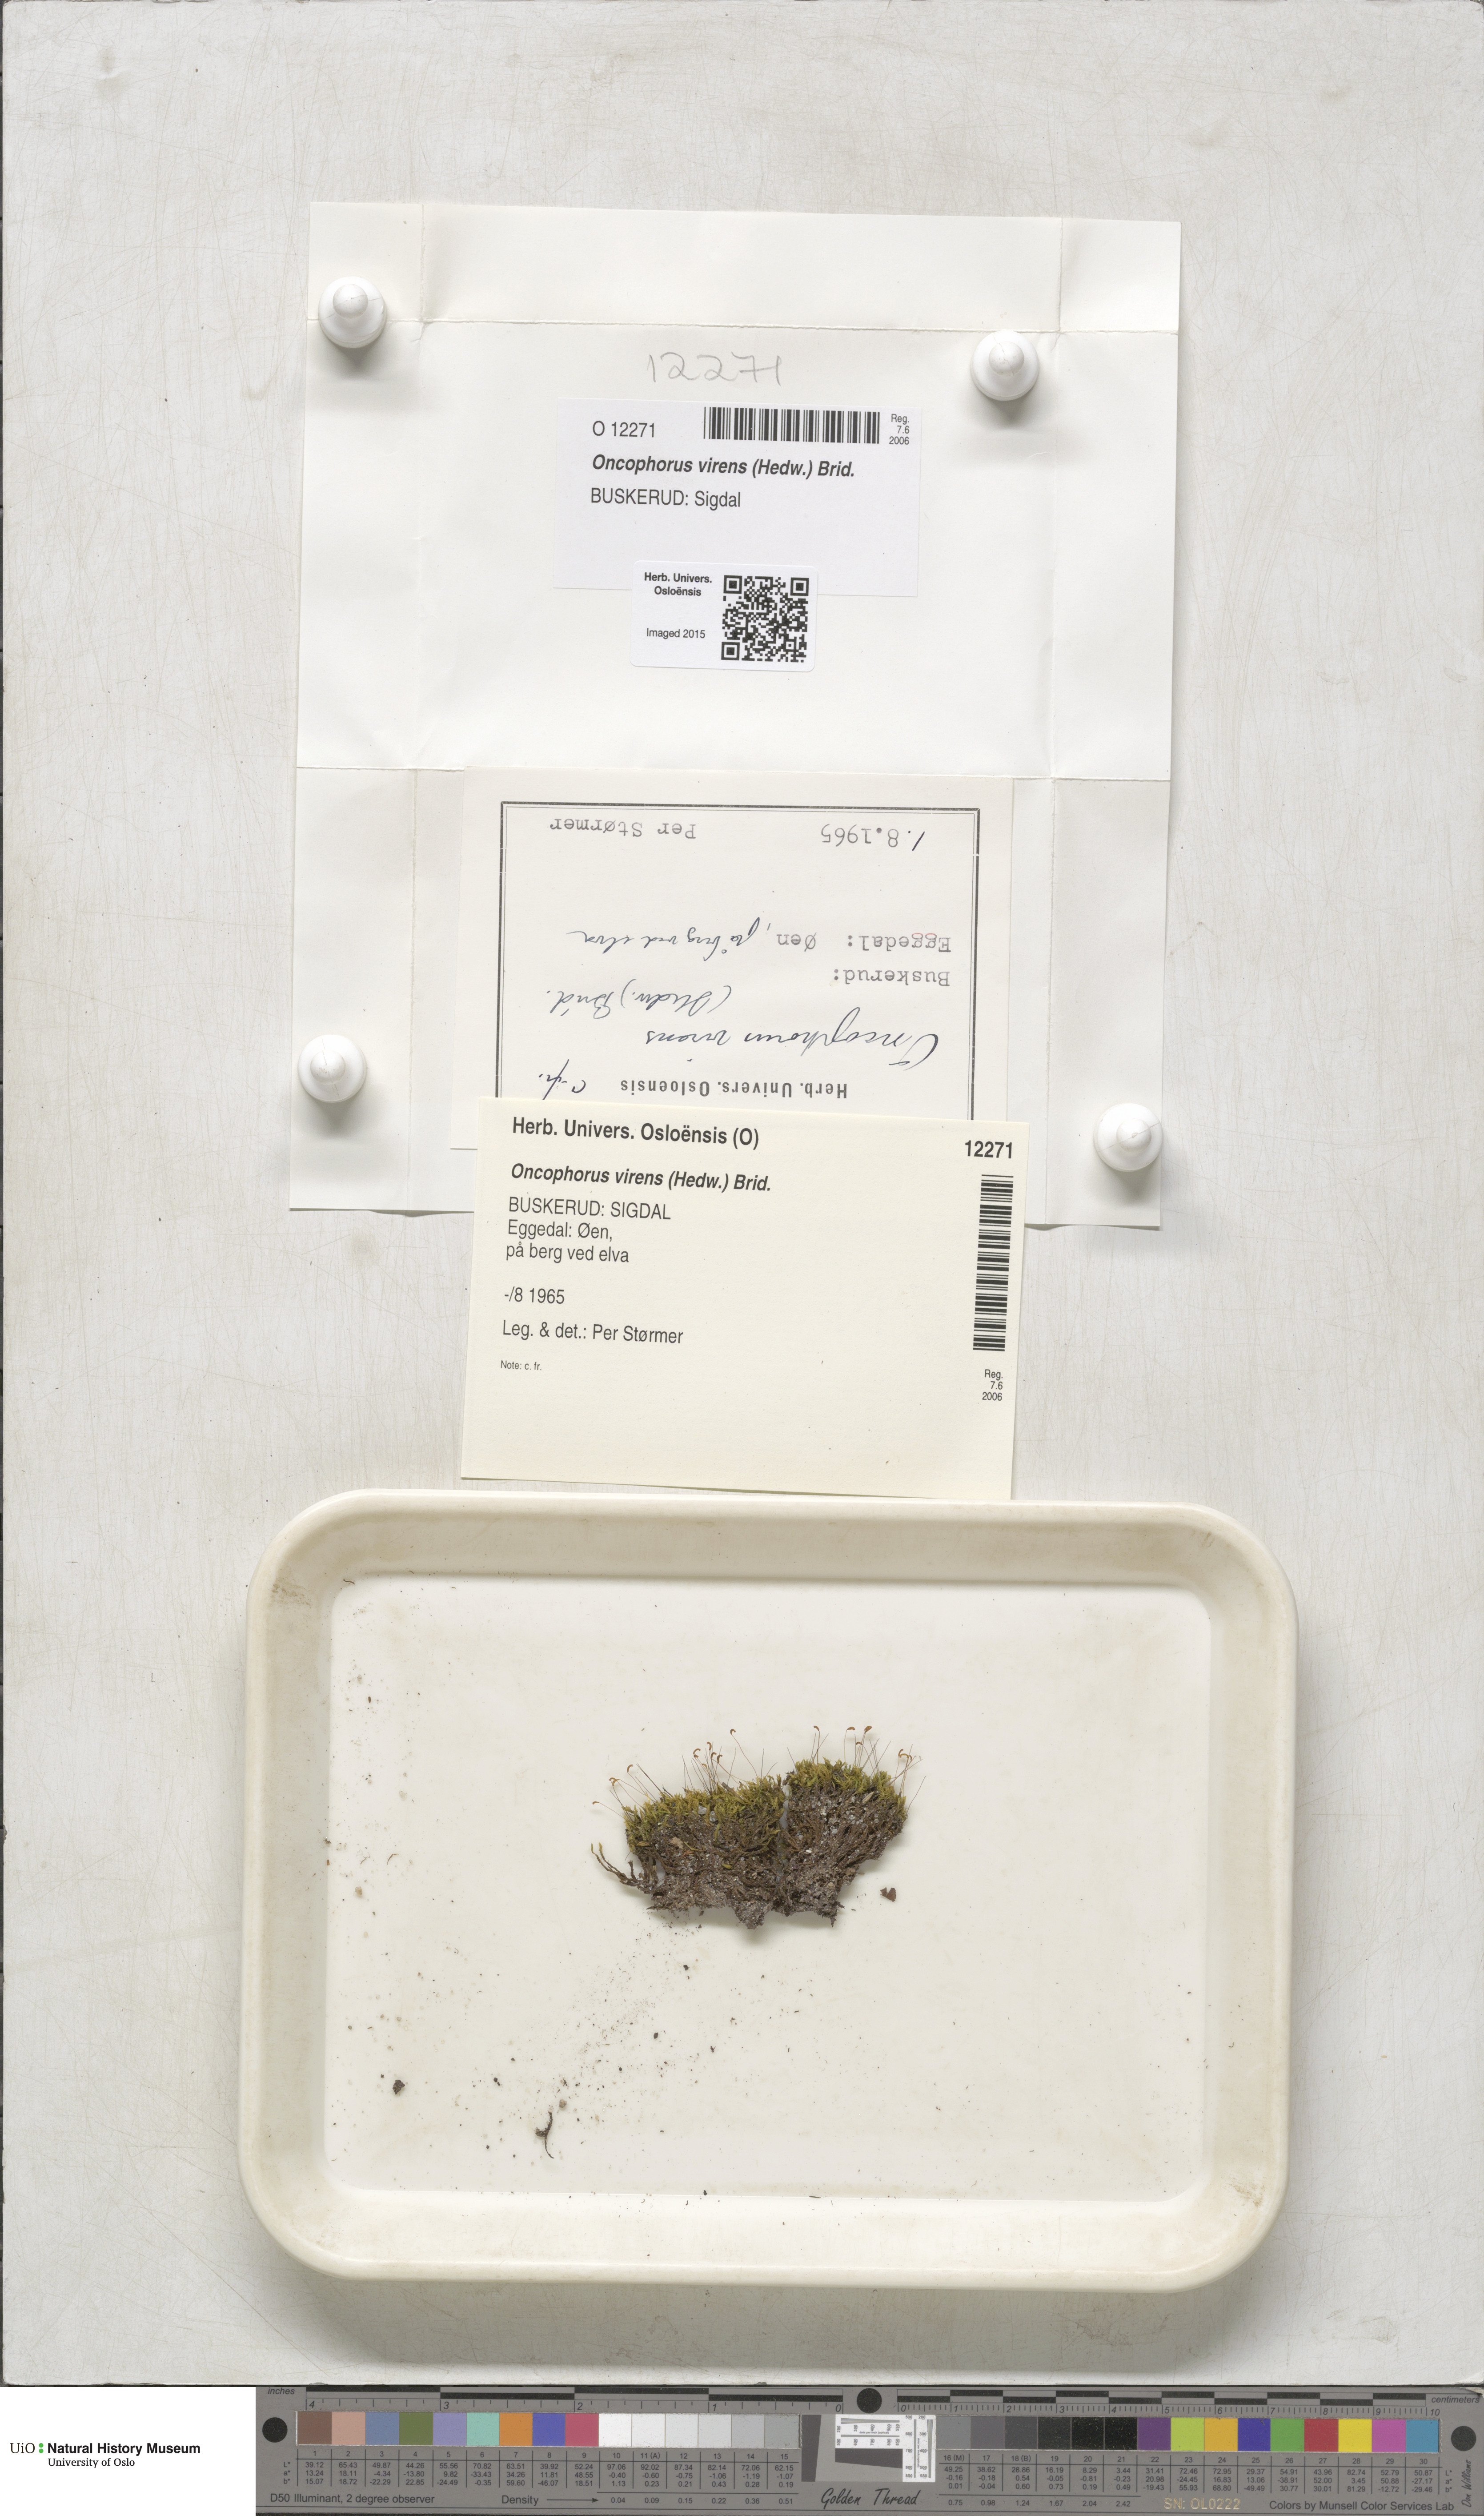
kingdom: Plantae
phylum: Bryophyta
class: Bryopsida
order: Dicranales
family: Rhabdoweisiaceae
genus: Oncophorus
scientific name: Oncophorus virens
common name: Green spur moss
